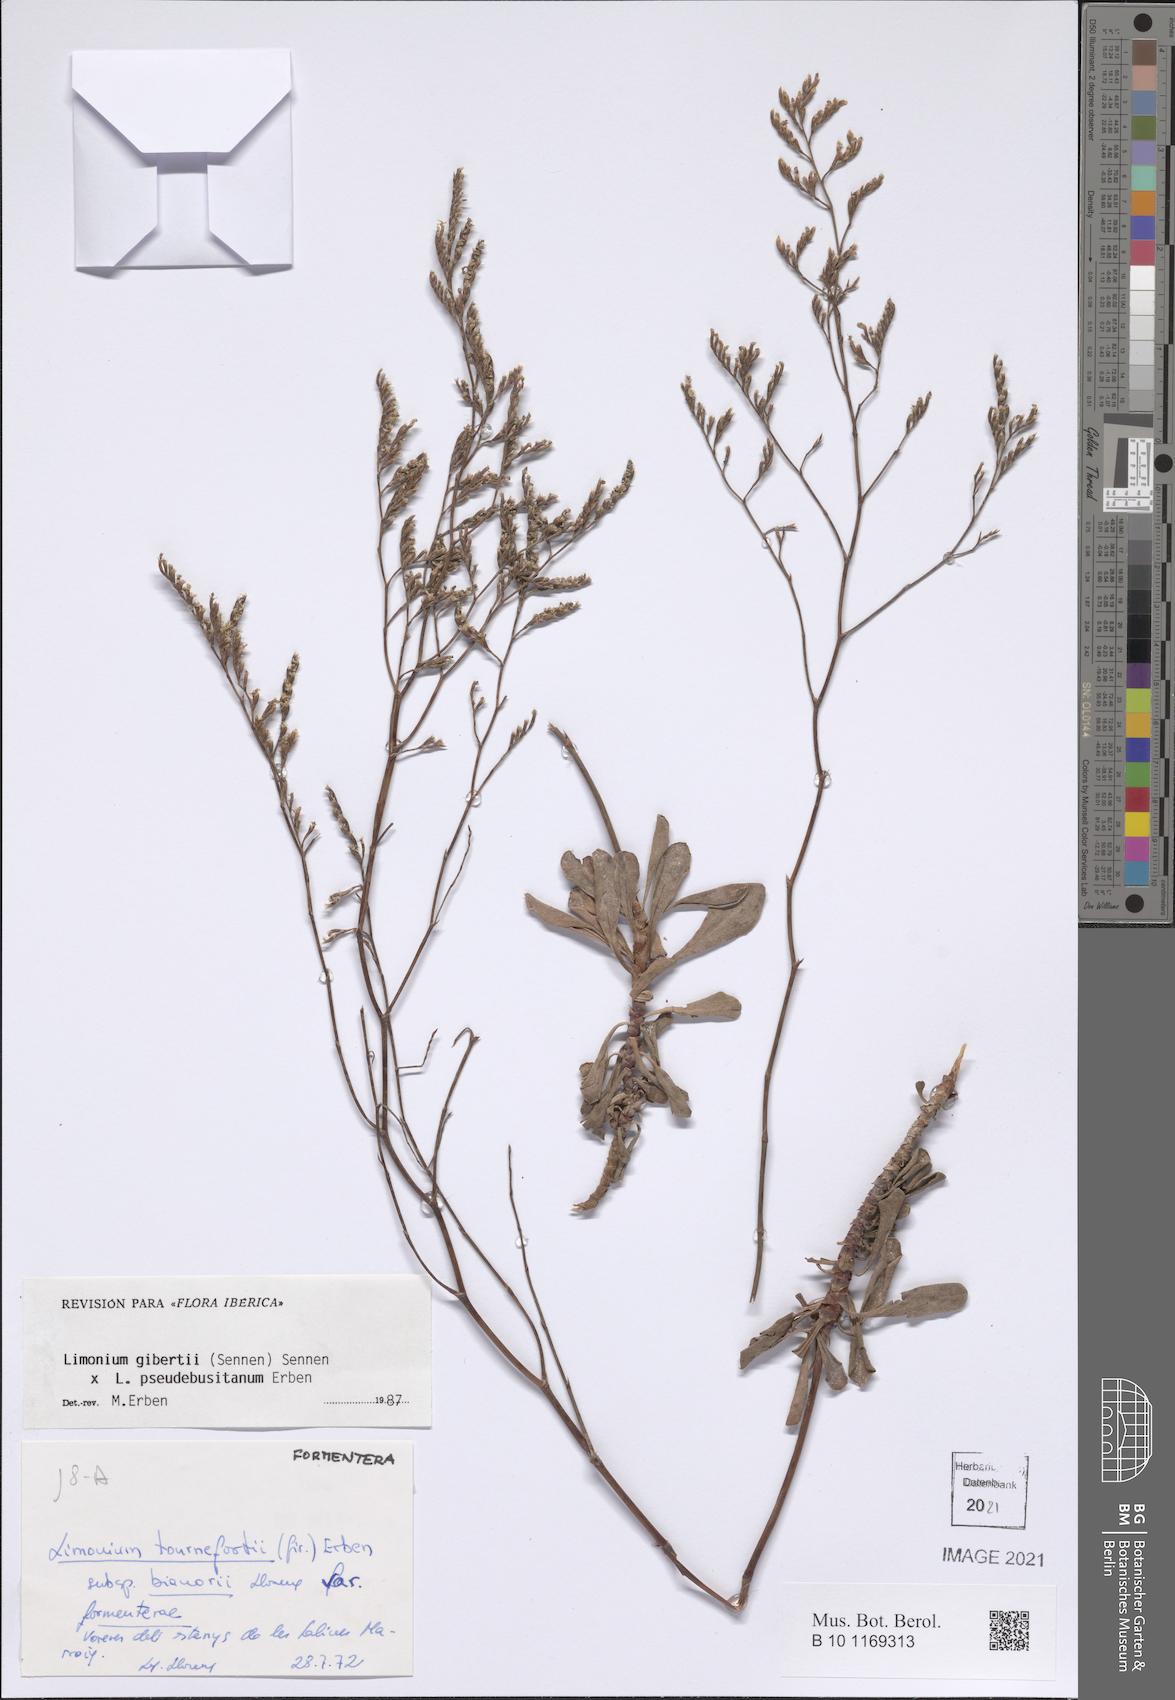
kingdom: Plantae
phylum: Tracheophyta
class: Magnoliopsida
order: Caryophyllales
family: Plumbaginaceae
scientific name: Plumbaginaceae
